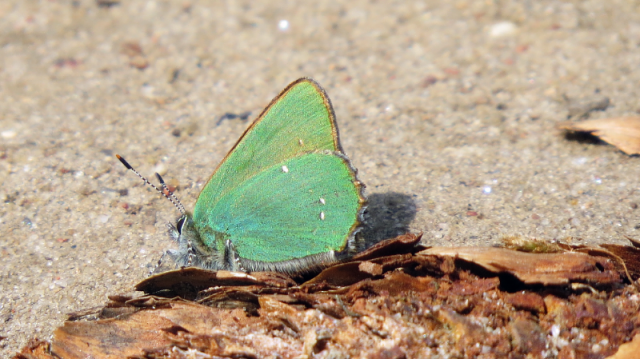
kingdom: Animalia
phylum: Arthropoda
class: Insecta
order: Lepidoptera
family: Lycaenidae
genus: Callophrys
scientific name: Callophrys rubi
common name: Green Hairstreak
